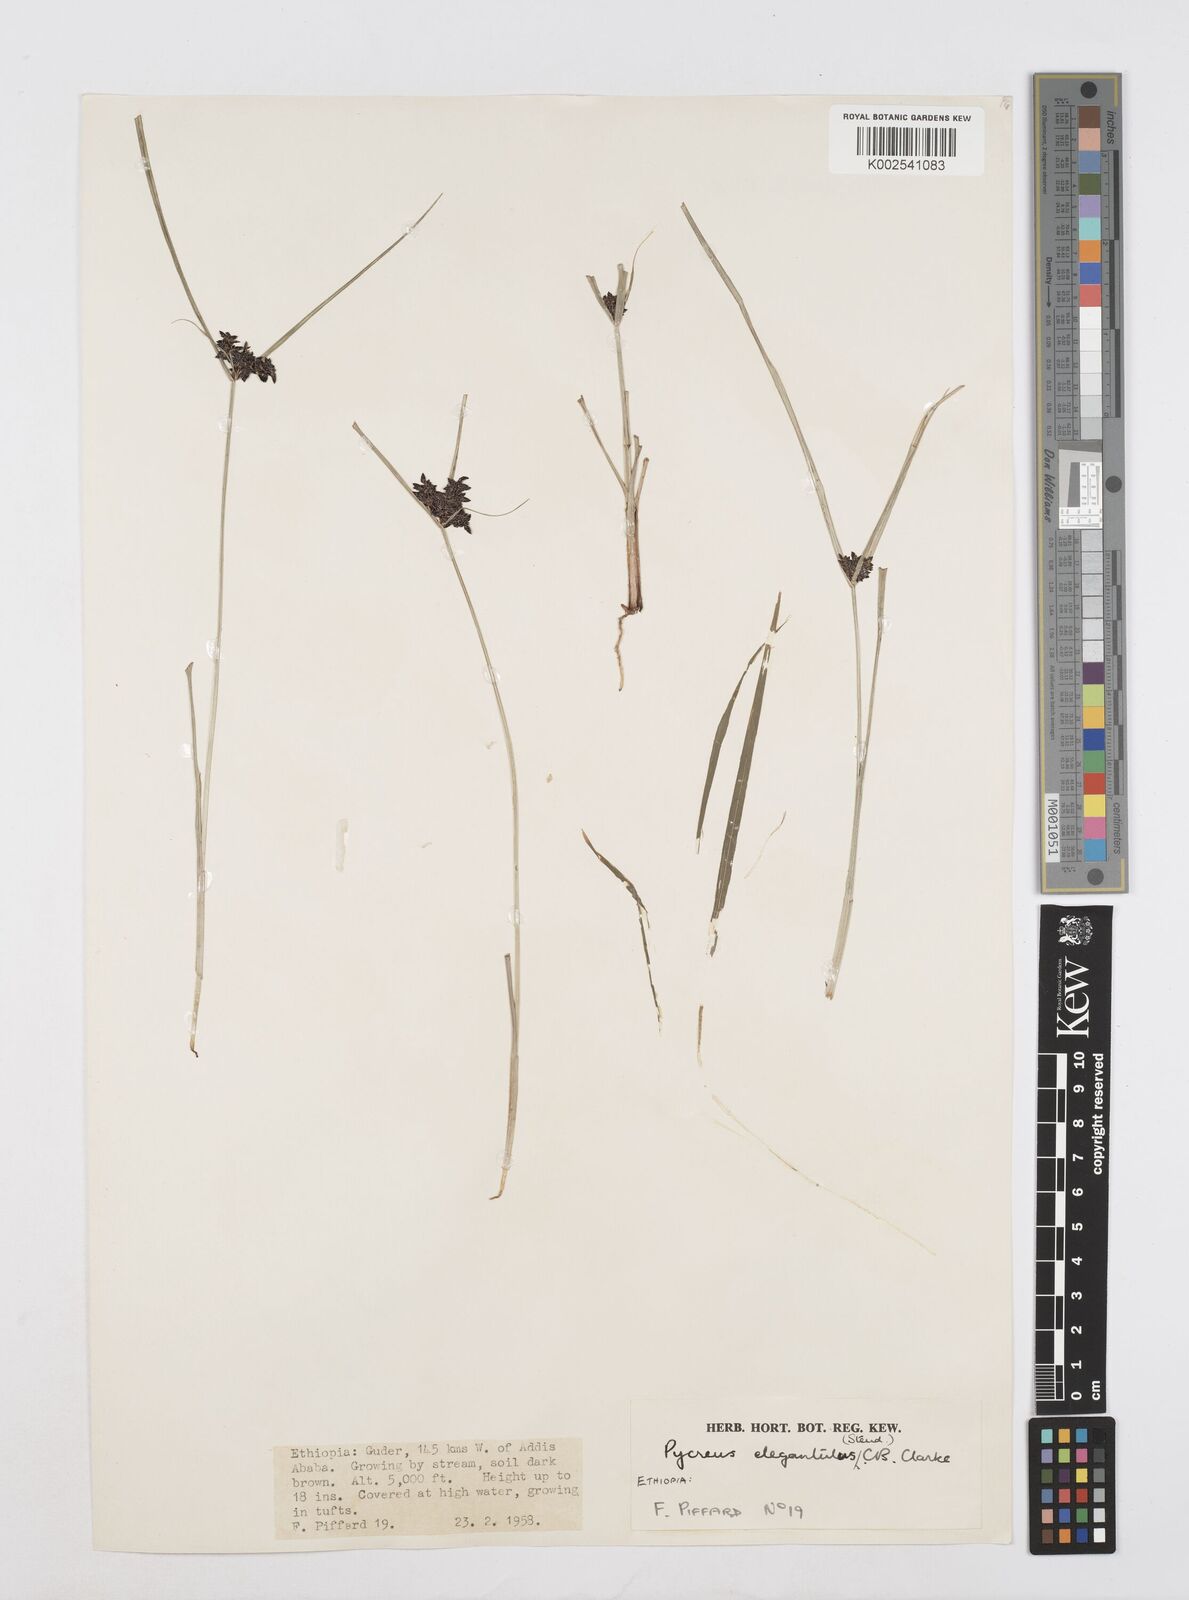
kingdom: Plantae
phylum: Tracheophyta
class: Liliopsida
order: Poales
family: Cyperaceae
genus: Cyperus
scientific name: Cyperus elegantulus
